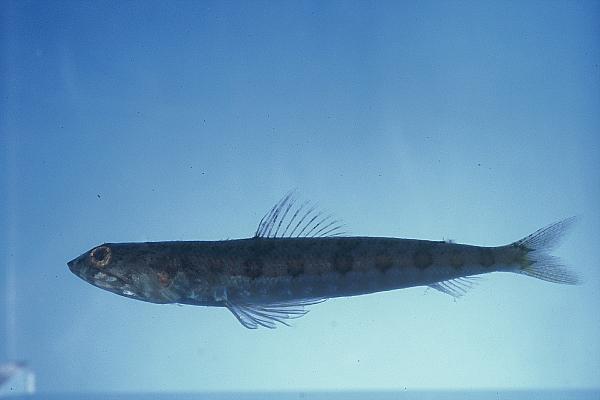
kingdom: Animalia
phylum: Chordata
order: Aulopiformes
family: Synodontidae
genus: Synodus
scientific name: Synodus dermatogenys
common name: Banded lizardfish
